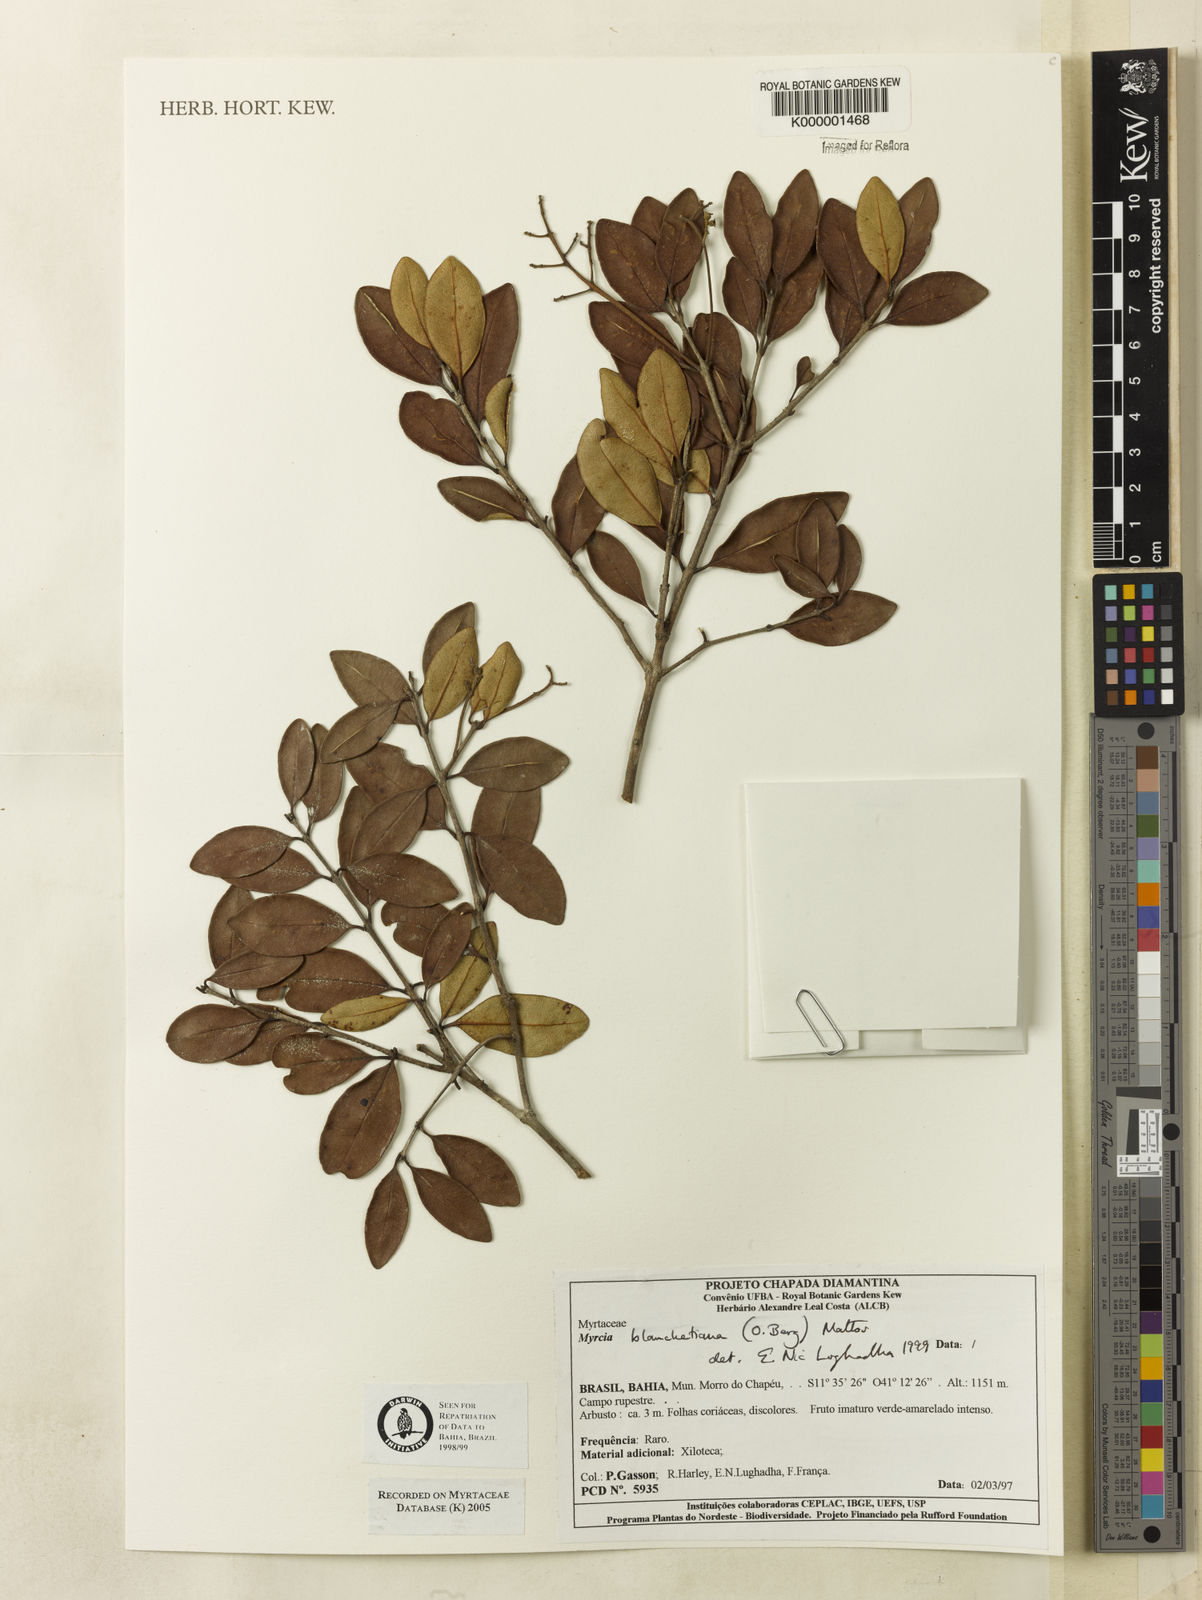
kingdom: Plantae
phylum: Tracheophyta
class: Magnoliopsida
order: Myrtales
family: Myrtaceae
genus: Myrcia
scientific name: Myrcia blanchetiana
